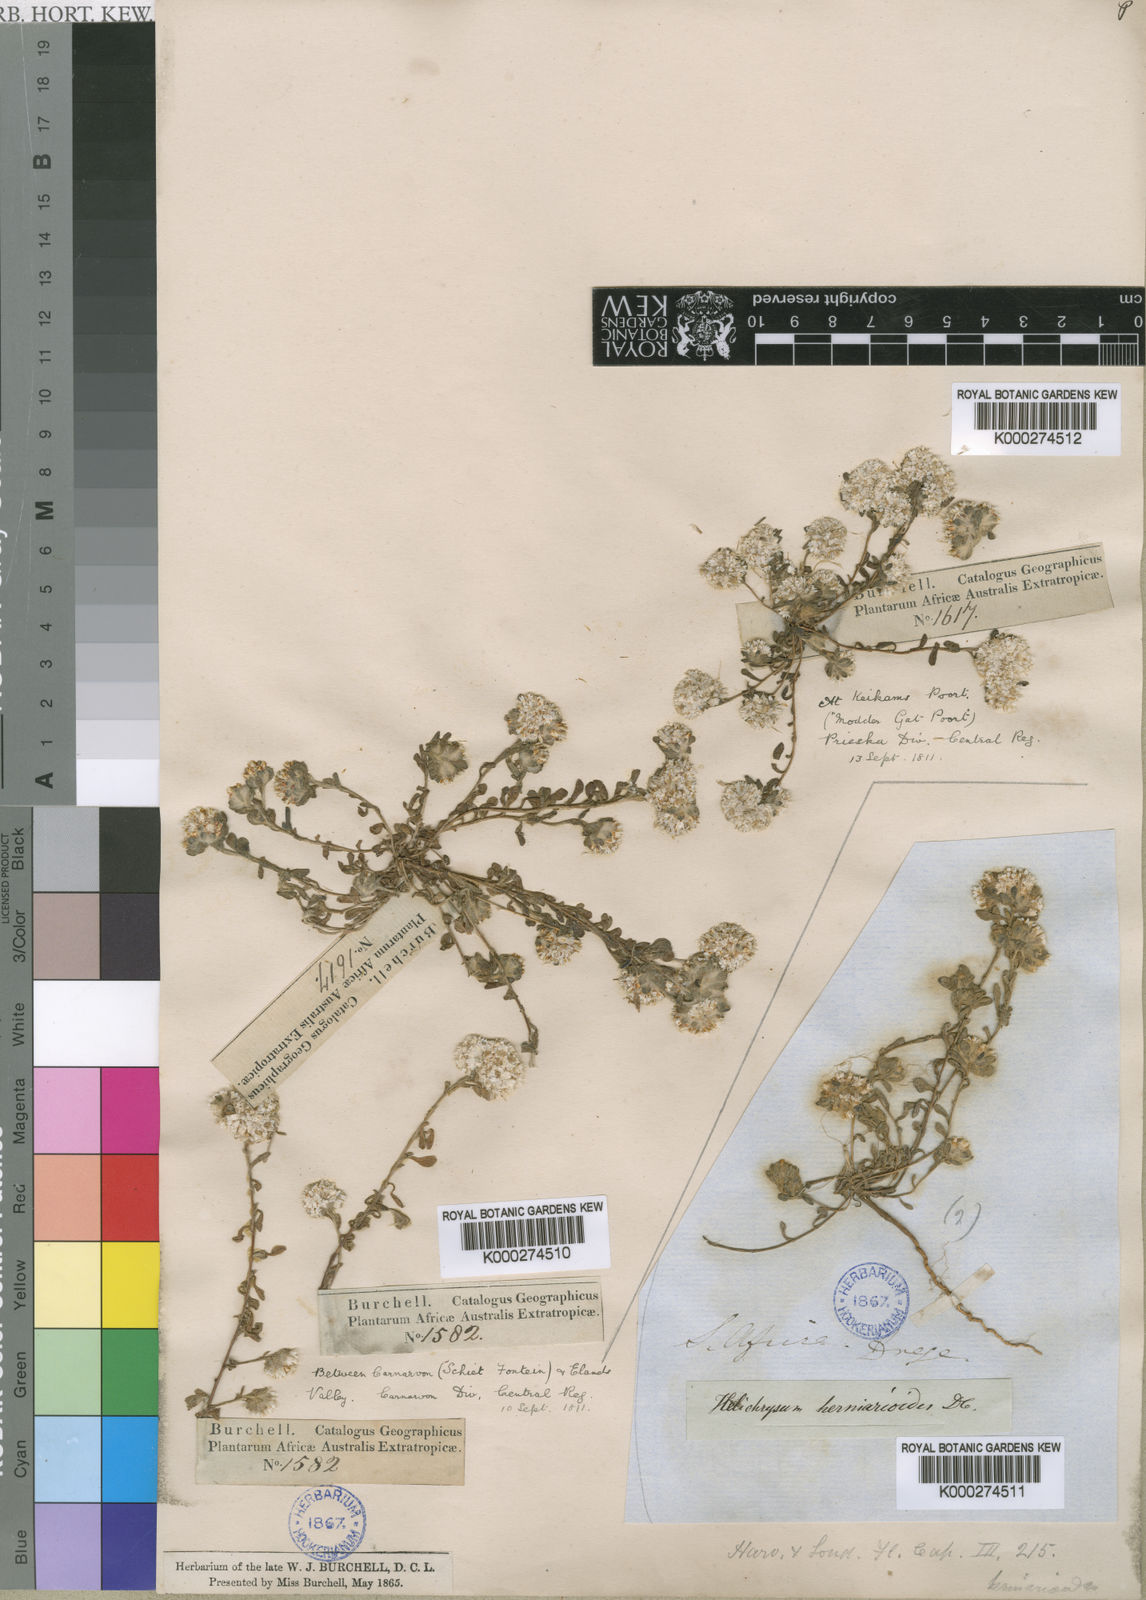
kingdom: Plantae
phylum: Tracheophyta
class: Magnoliopsida
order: Asterales
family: Asteraceae
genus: Helichrysum
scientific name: Helichrysum herniarioides
